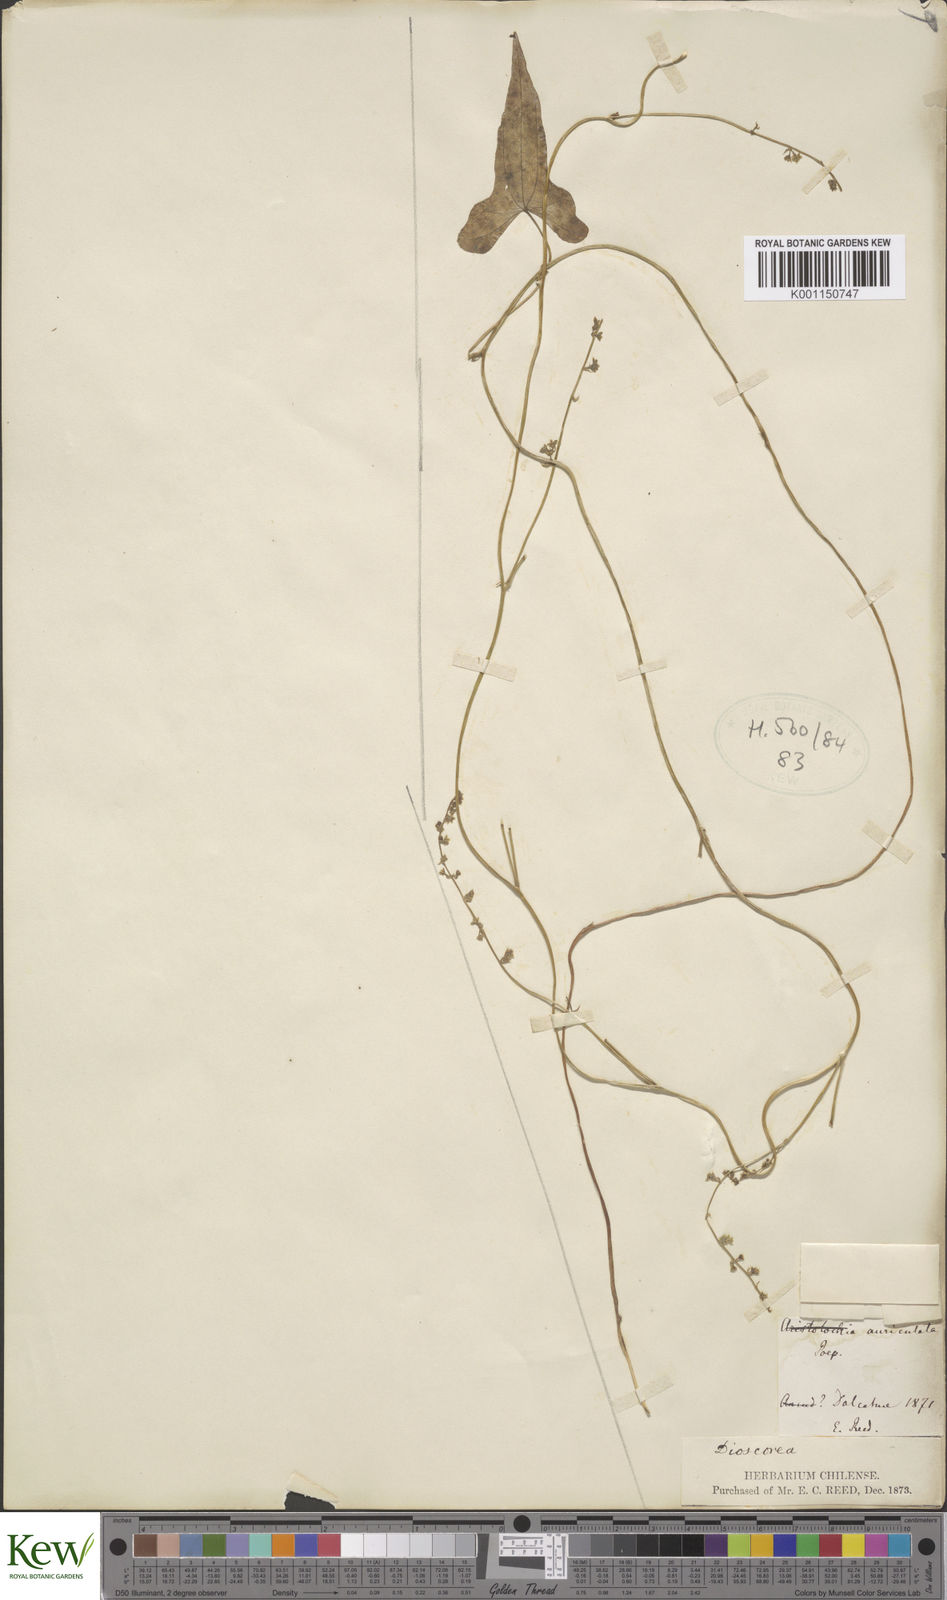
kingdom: Plantae
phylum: Tracheophyta
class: Liliopsida
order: Dioscoreales
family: Dioscoreaceae
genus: Dioscorea
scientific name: Dioscorea
